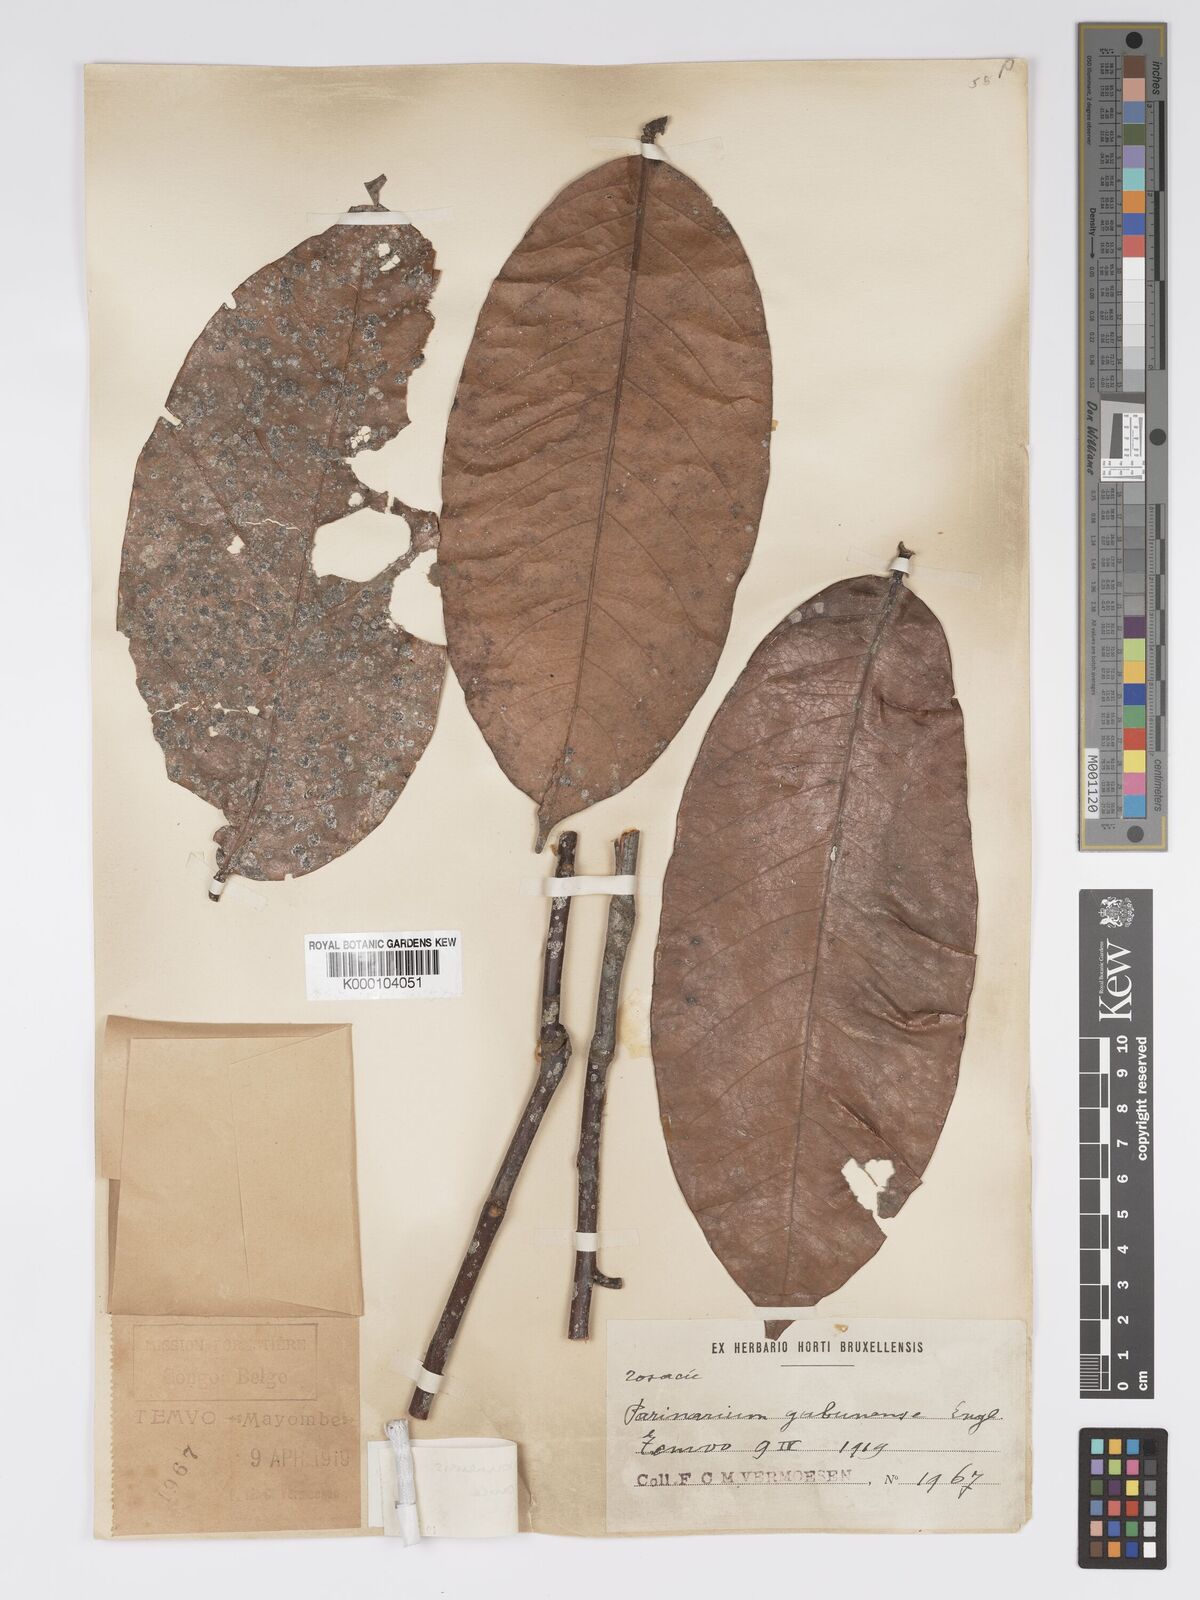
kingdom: Plantae
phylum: Tracheophyta
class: Magnoliopsida
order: Malpighiales
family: Chrysobalanaceae
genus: Maranthes
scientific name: Maranthes gabunensis
